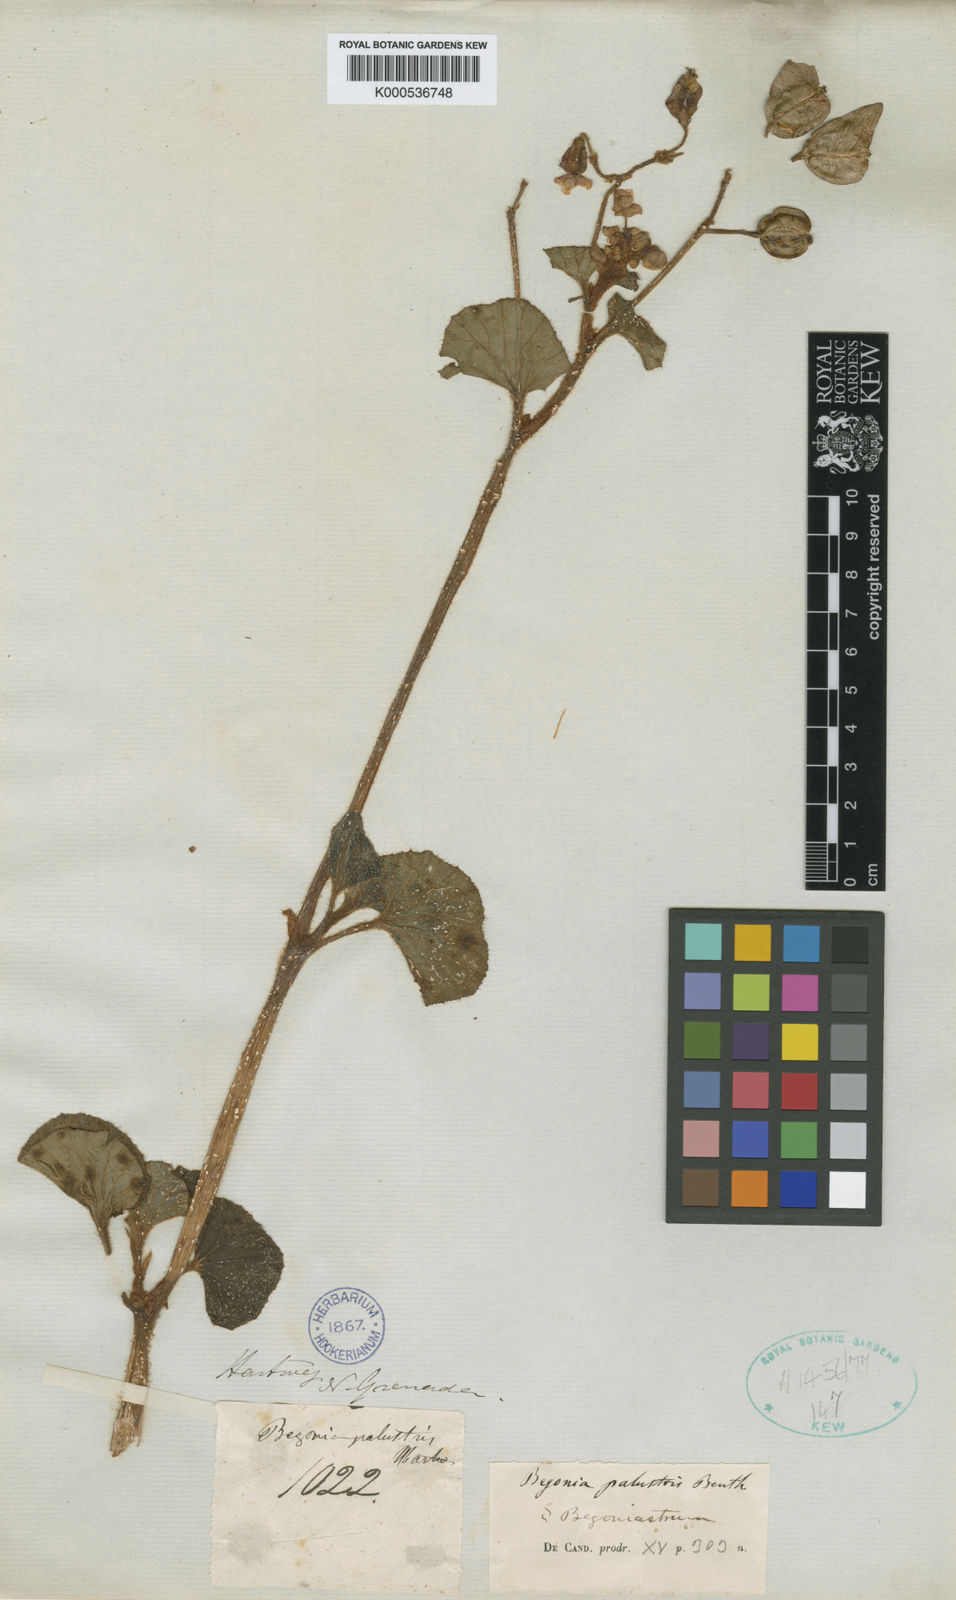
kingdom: Plantae
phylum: Tracheophyta
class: Magnoliopsida
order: Cucurbitales
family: Begoniaceae
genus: Begonia
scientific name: Begonia fischeri
